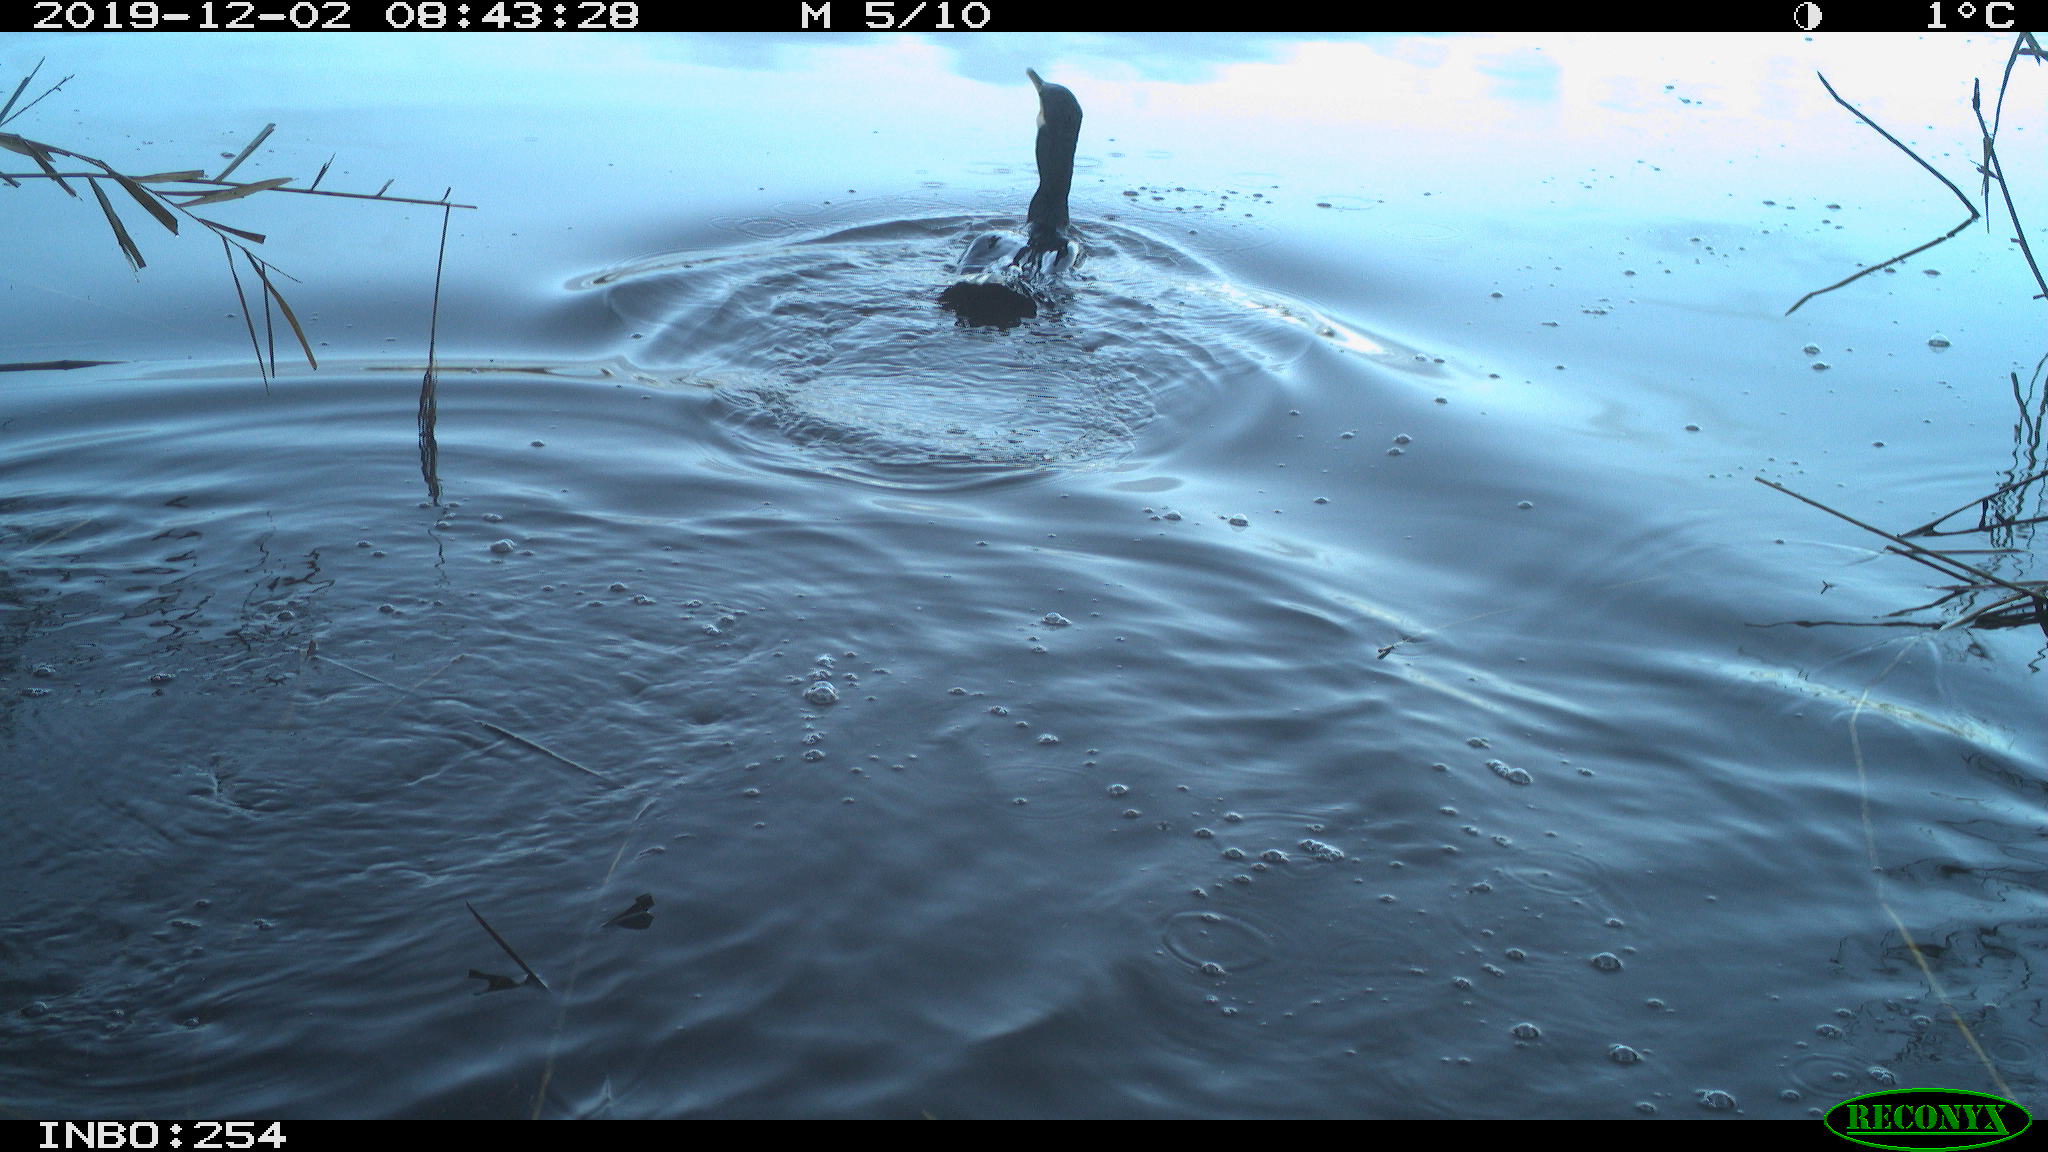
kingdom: Animalia
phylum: Chordata
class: Aves
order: Gruiformes
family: Rallidae
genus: Gallinula
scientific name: Gallinula chloropus
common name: Common moorhen
